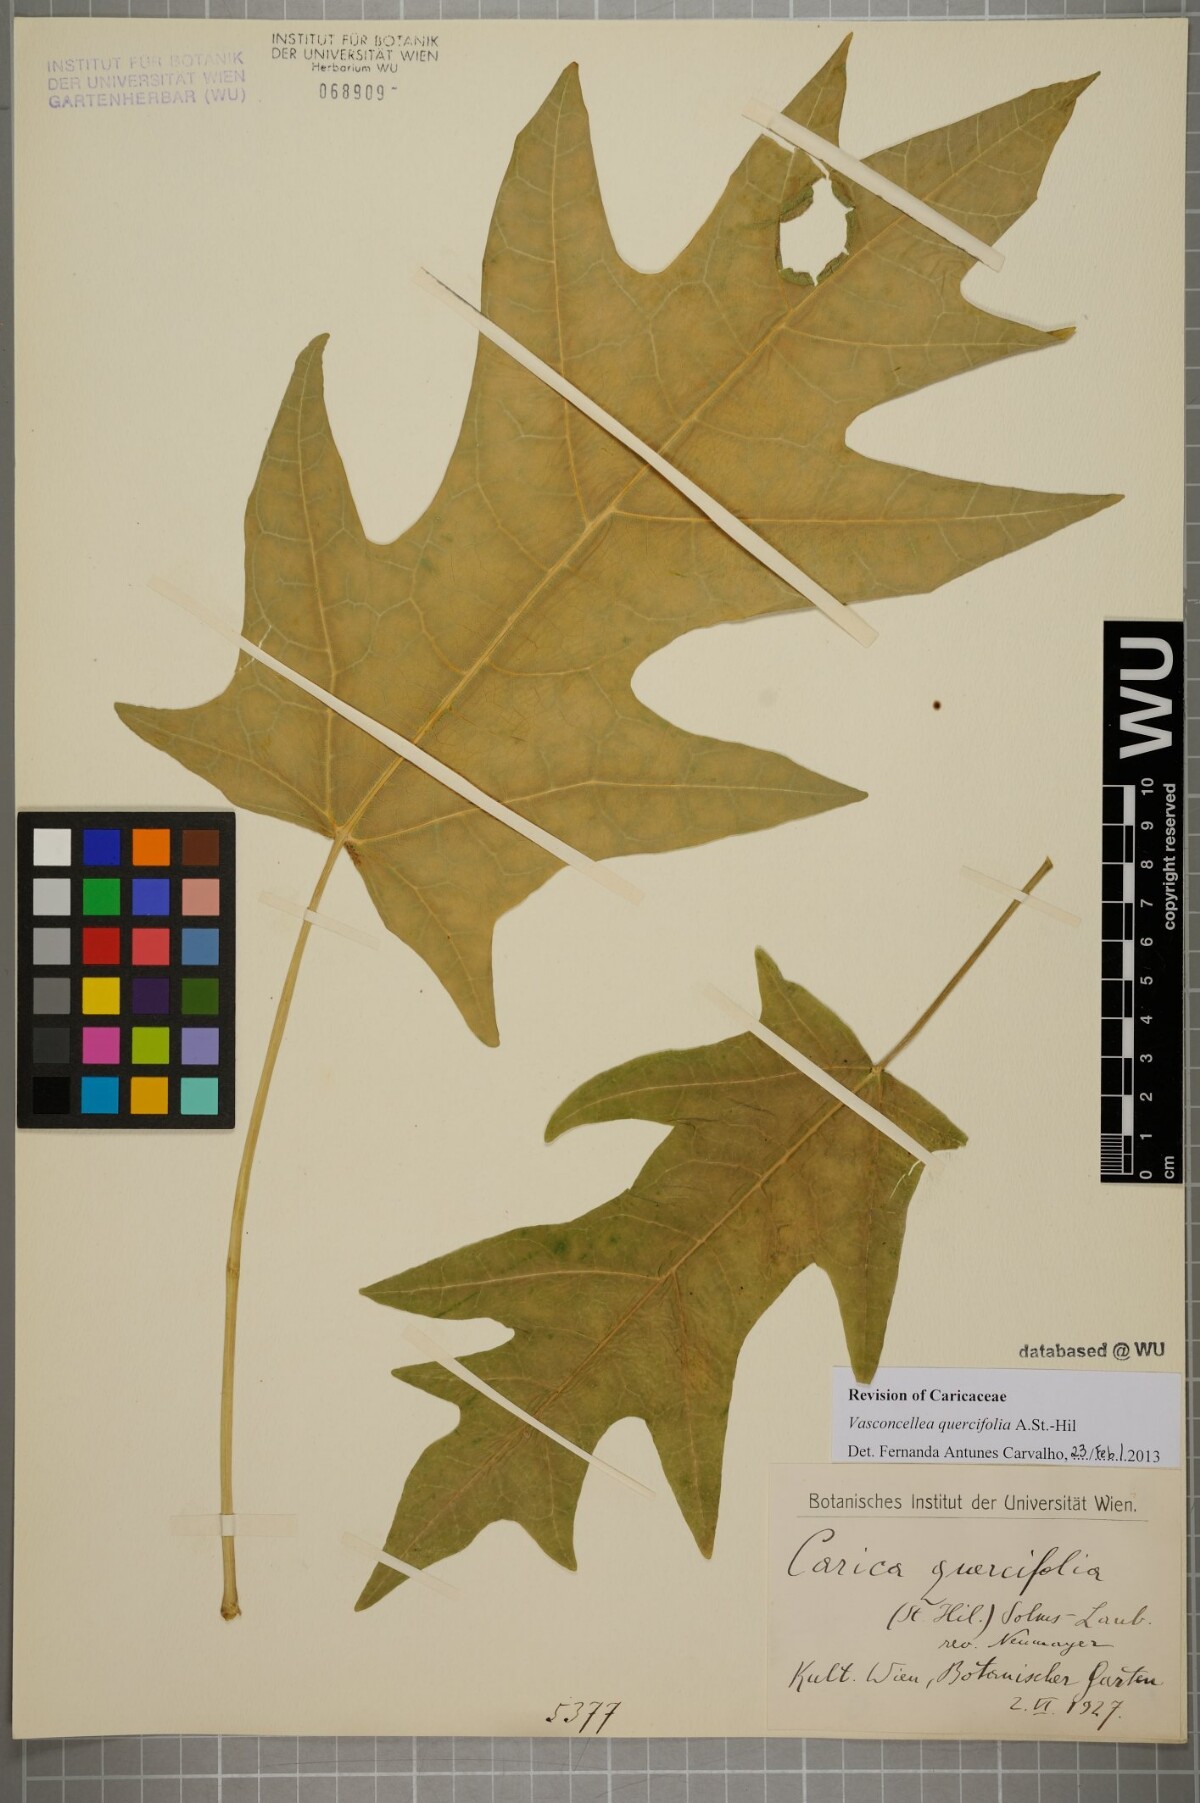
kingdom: Plantae
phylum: Tracheophyta
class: Magnoliopsida
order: Brassicales
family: Caricaceae
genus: Vasconcellea
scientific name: Vasconcellea quercifolia
